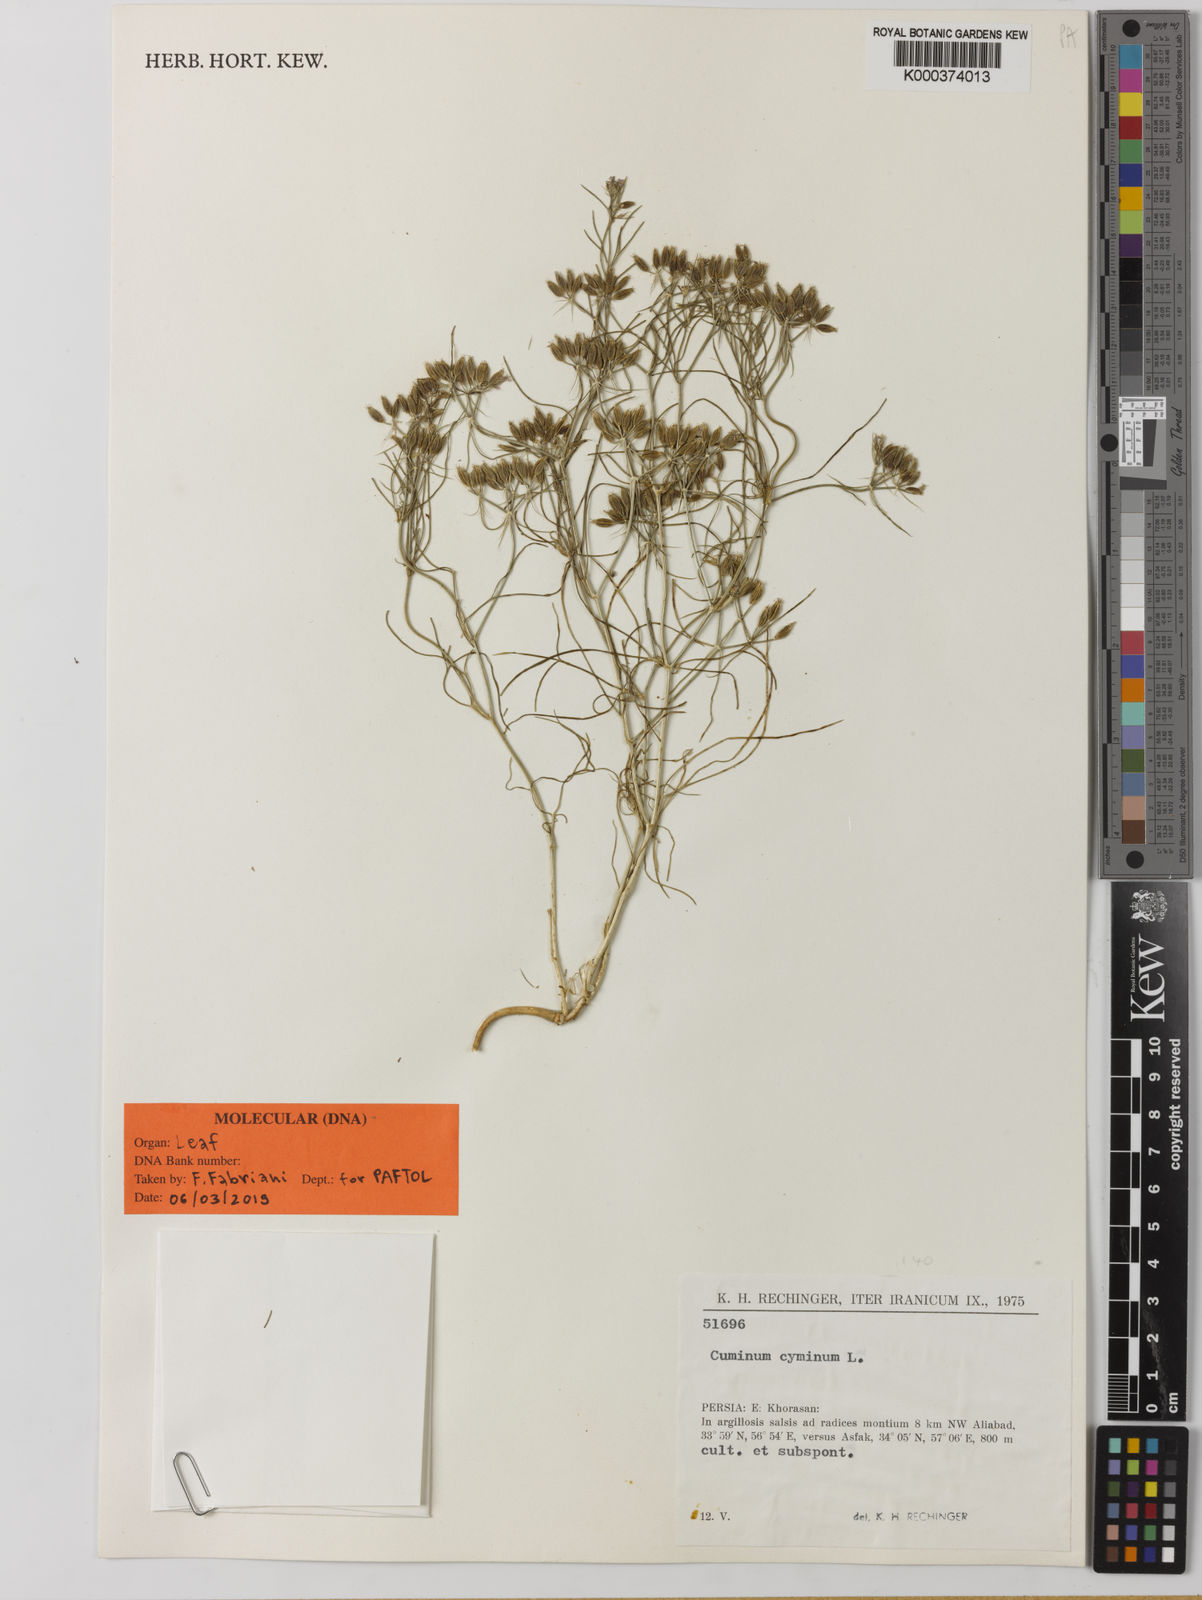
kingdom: Plantae
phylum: Tracheophyta
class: Magnoliopsida
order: Apiales
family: Apiaceae
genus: Cuminum
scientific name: Cuminum cyminum
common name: Cumin
